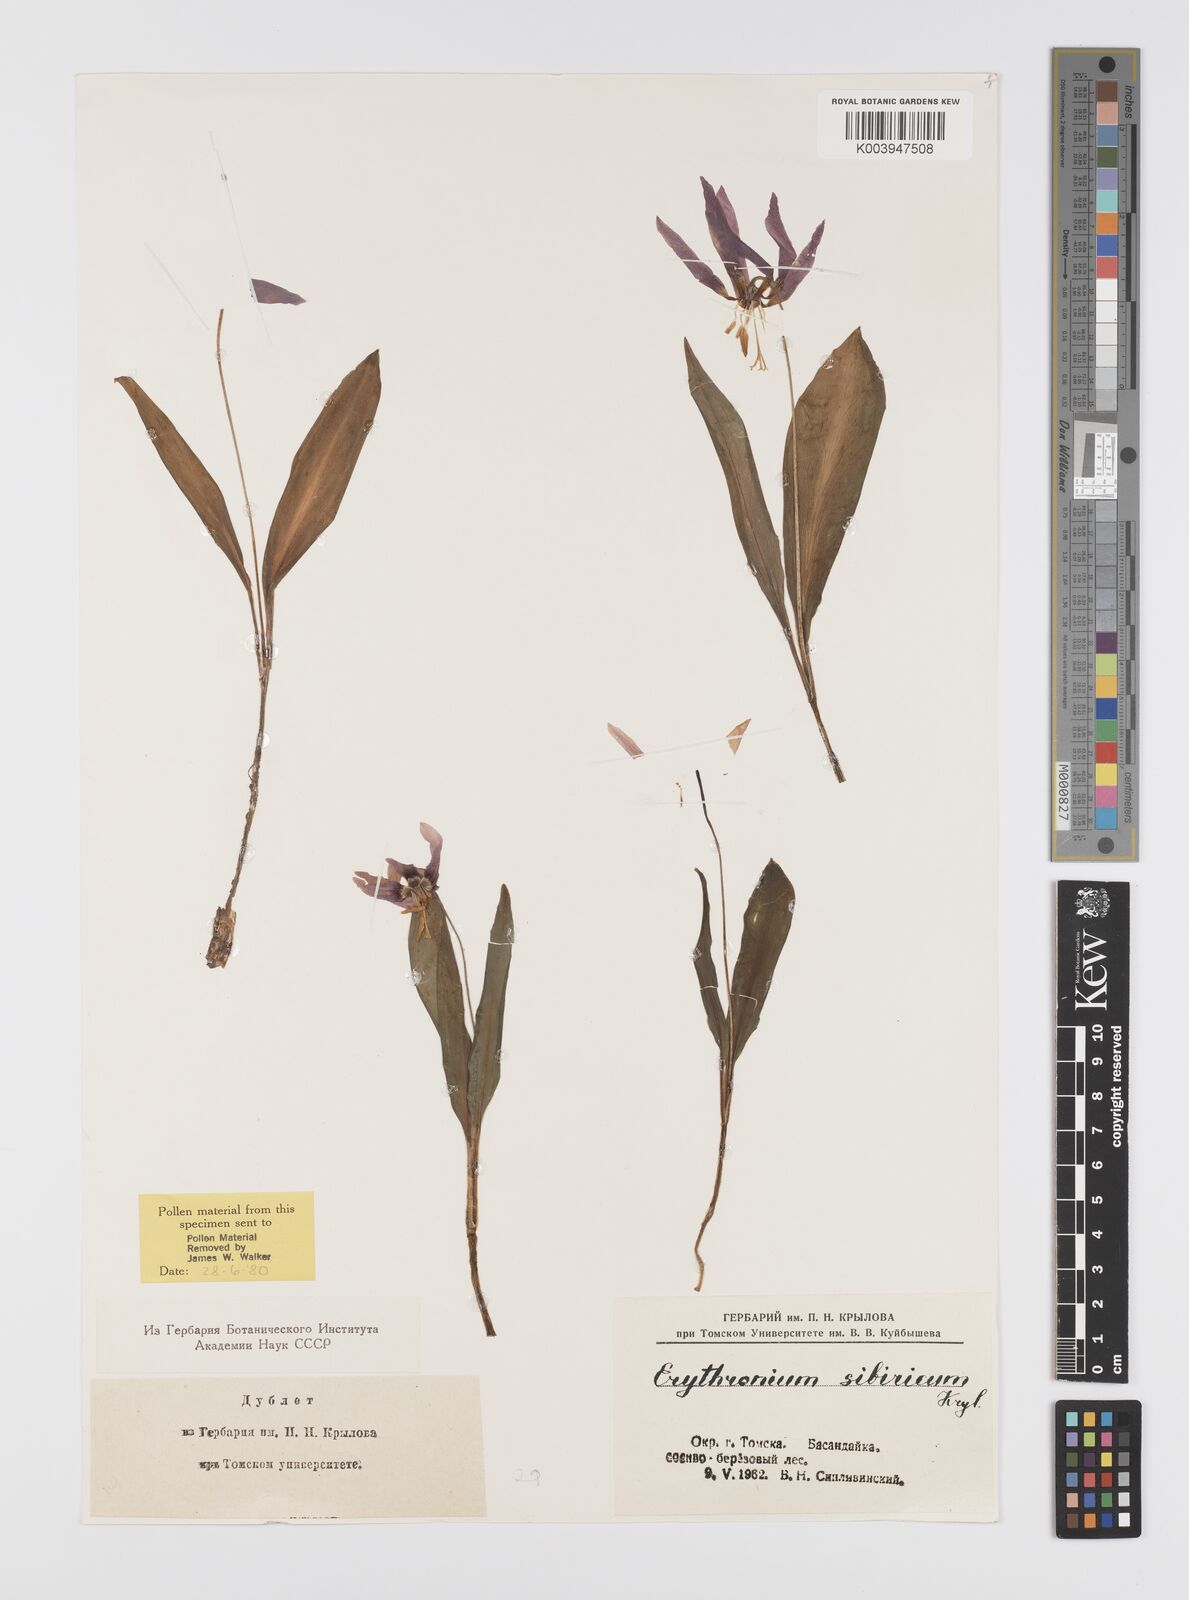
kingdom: Plantae
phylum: Tracheophyta
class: Liliopsida
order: Liliales
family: Liliaceae
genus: Erythronium
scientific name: Erythronium dens-canis
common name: Dog's-tooth-violet
